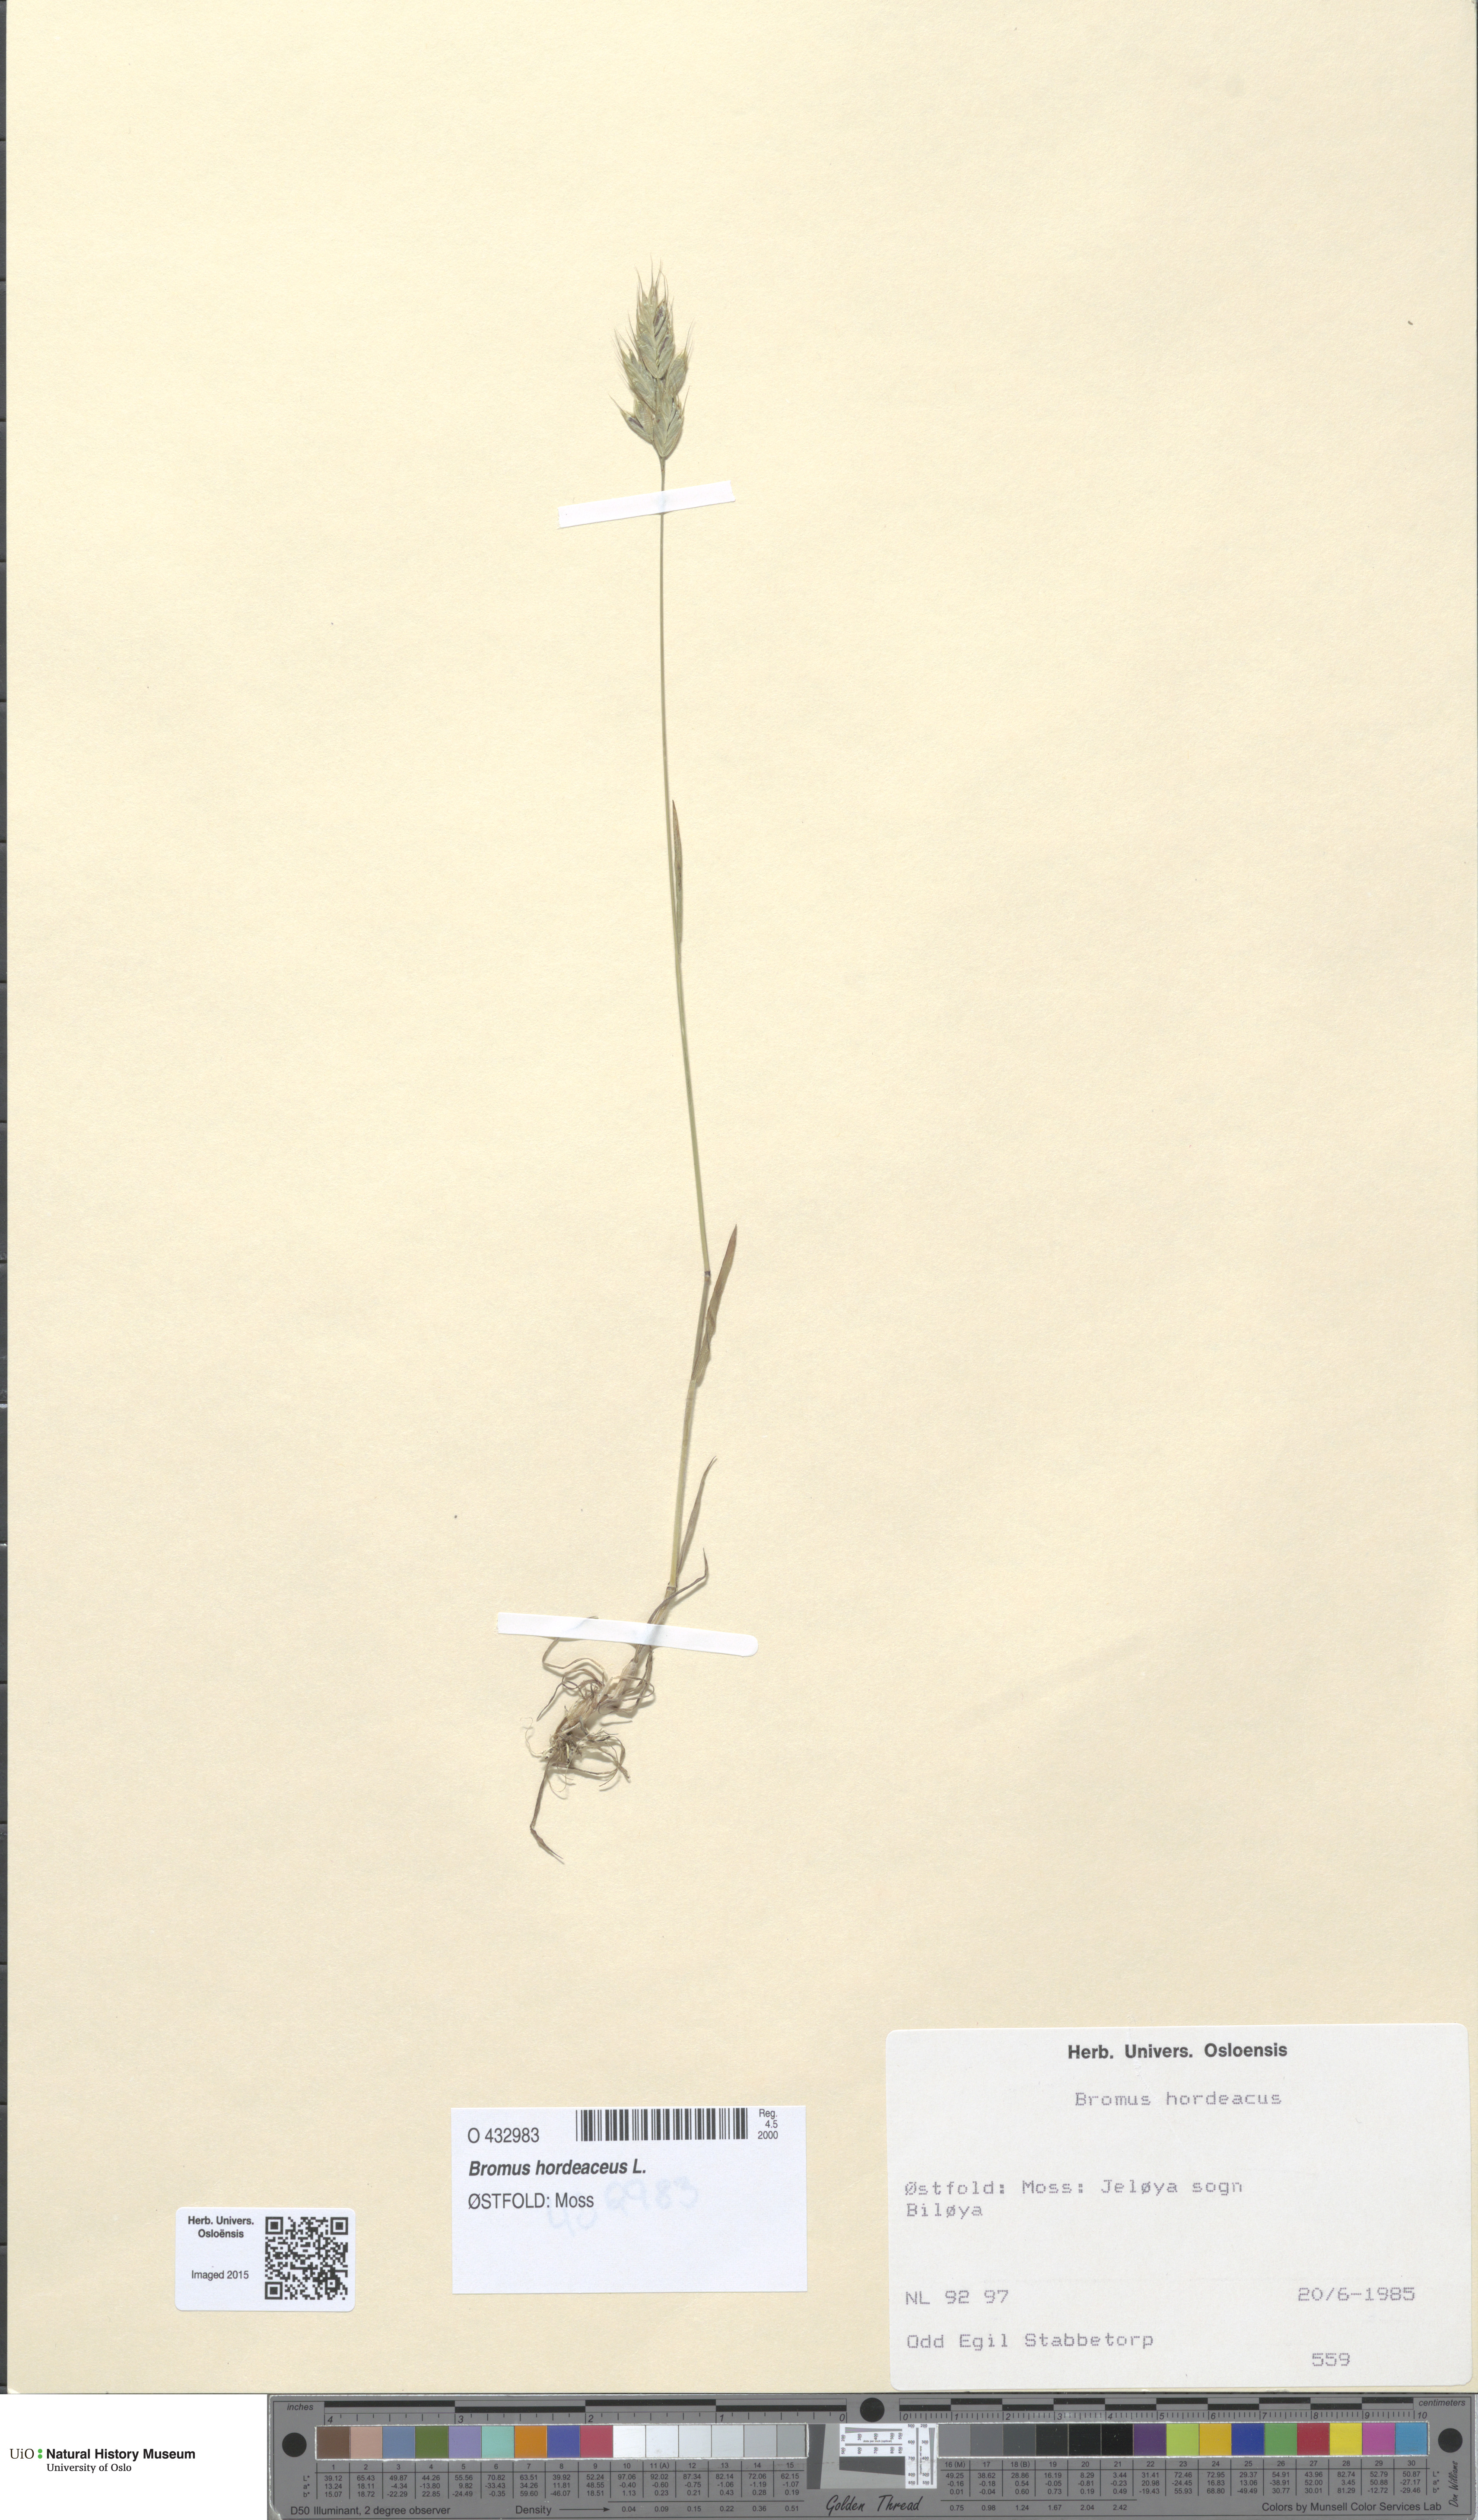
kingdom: Plantae
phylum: Tracheophyta
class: Liliopsida
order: Poales
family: Poaceae
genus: Bromus
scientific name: Bromus hordeaceus
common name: Soft brome
